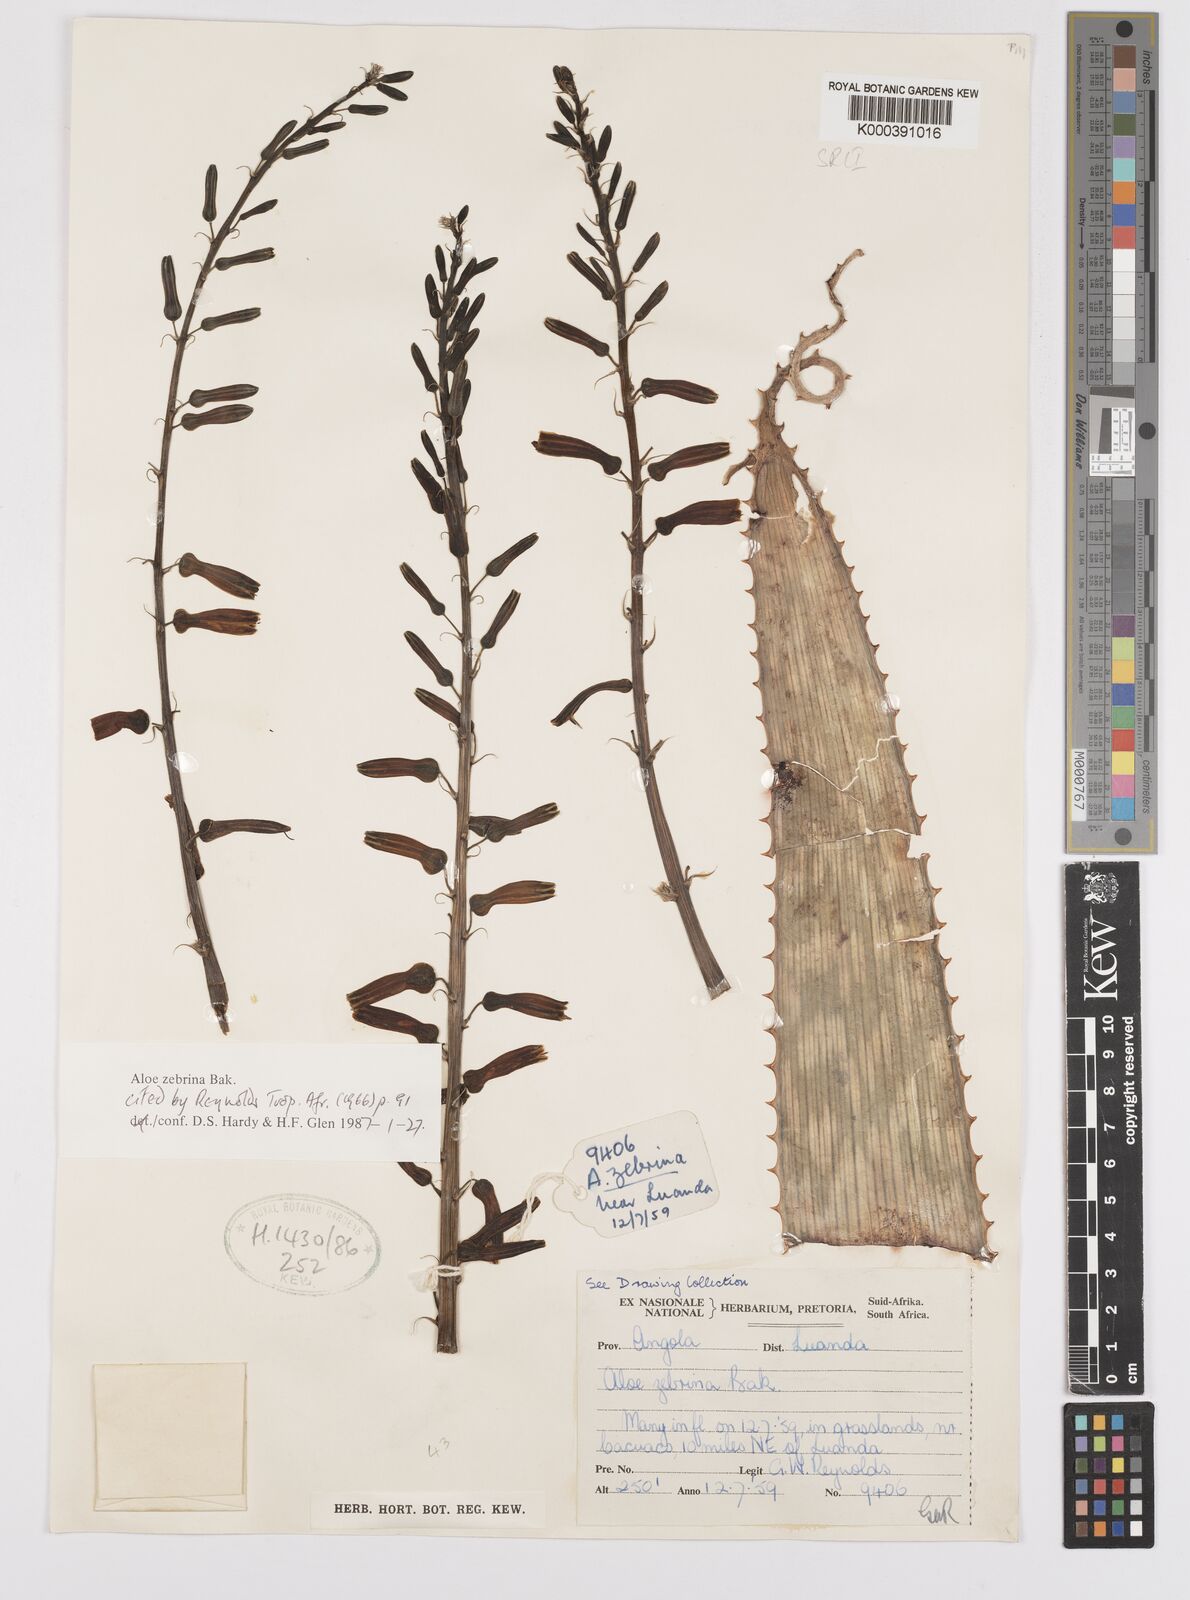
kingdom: Plantae
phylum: Tracheophyta
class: Liliopsida
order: Asparagales
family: Asphodelaceae
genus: Aloe
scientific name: Aloe zebrina
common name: Zebra-leaf aloe
